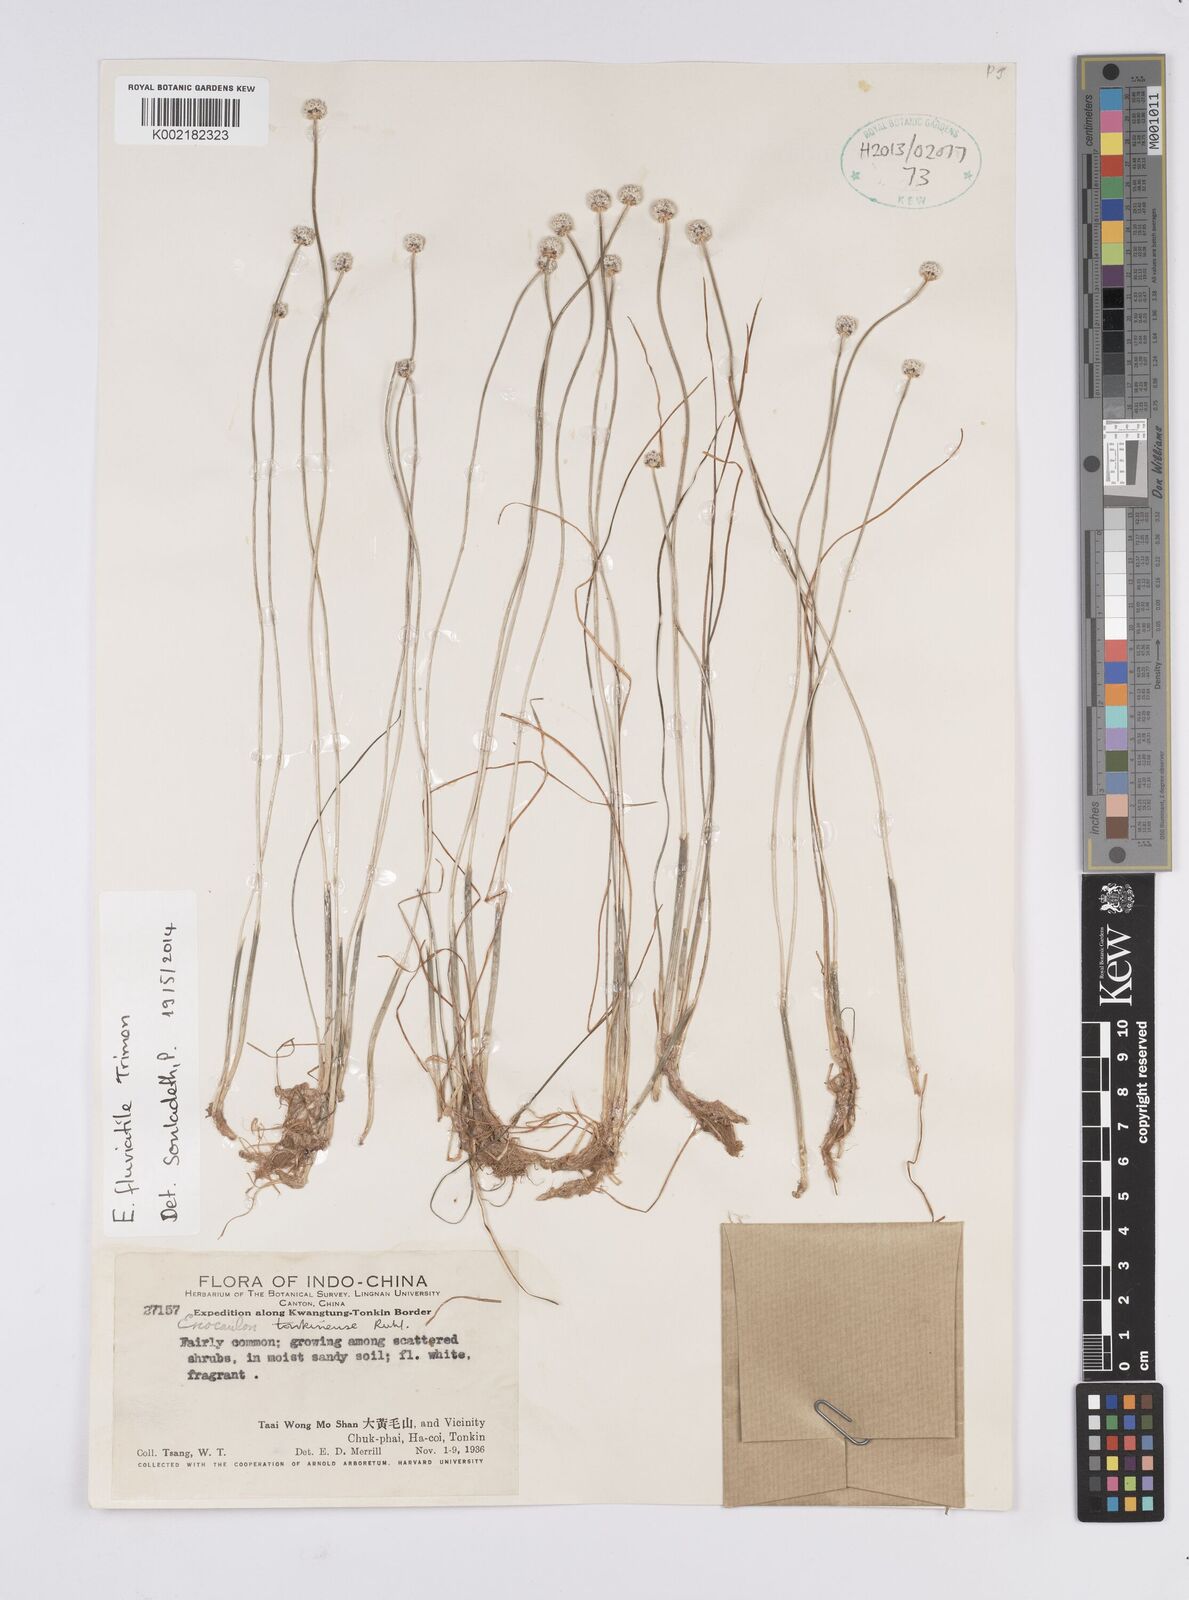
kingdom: Plantae
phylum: Tracheophyta
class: Liliopsida
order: Poales
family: Eriocaulaceae
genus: Eriocaulon
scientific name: Eriocaulon fluviatile
